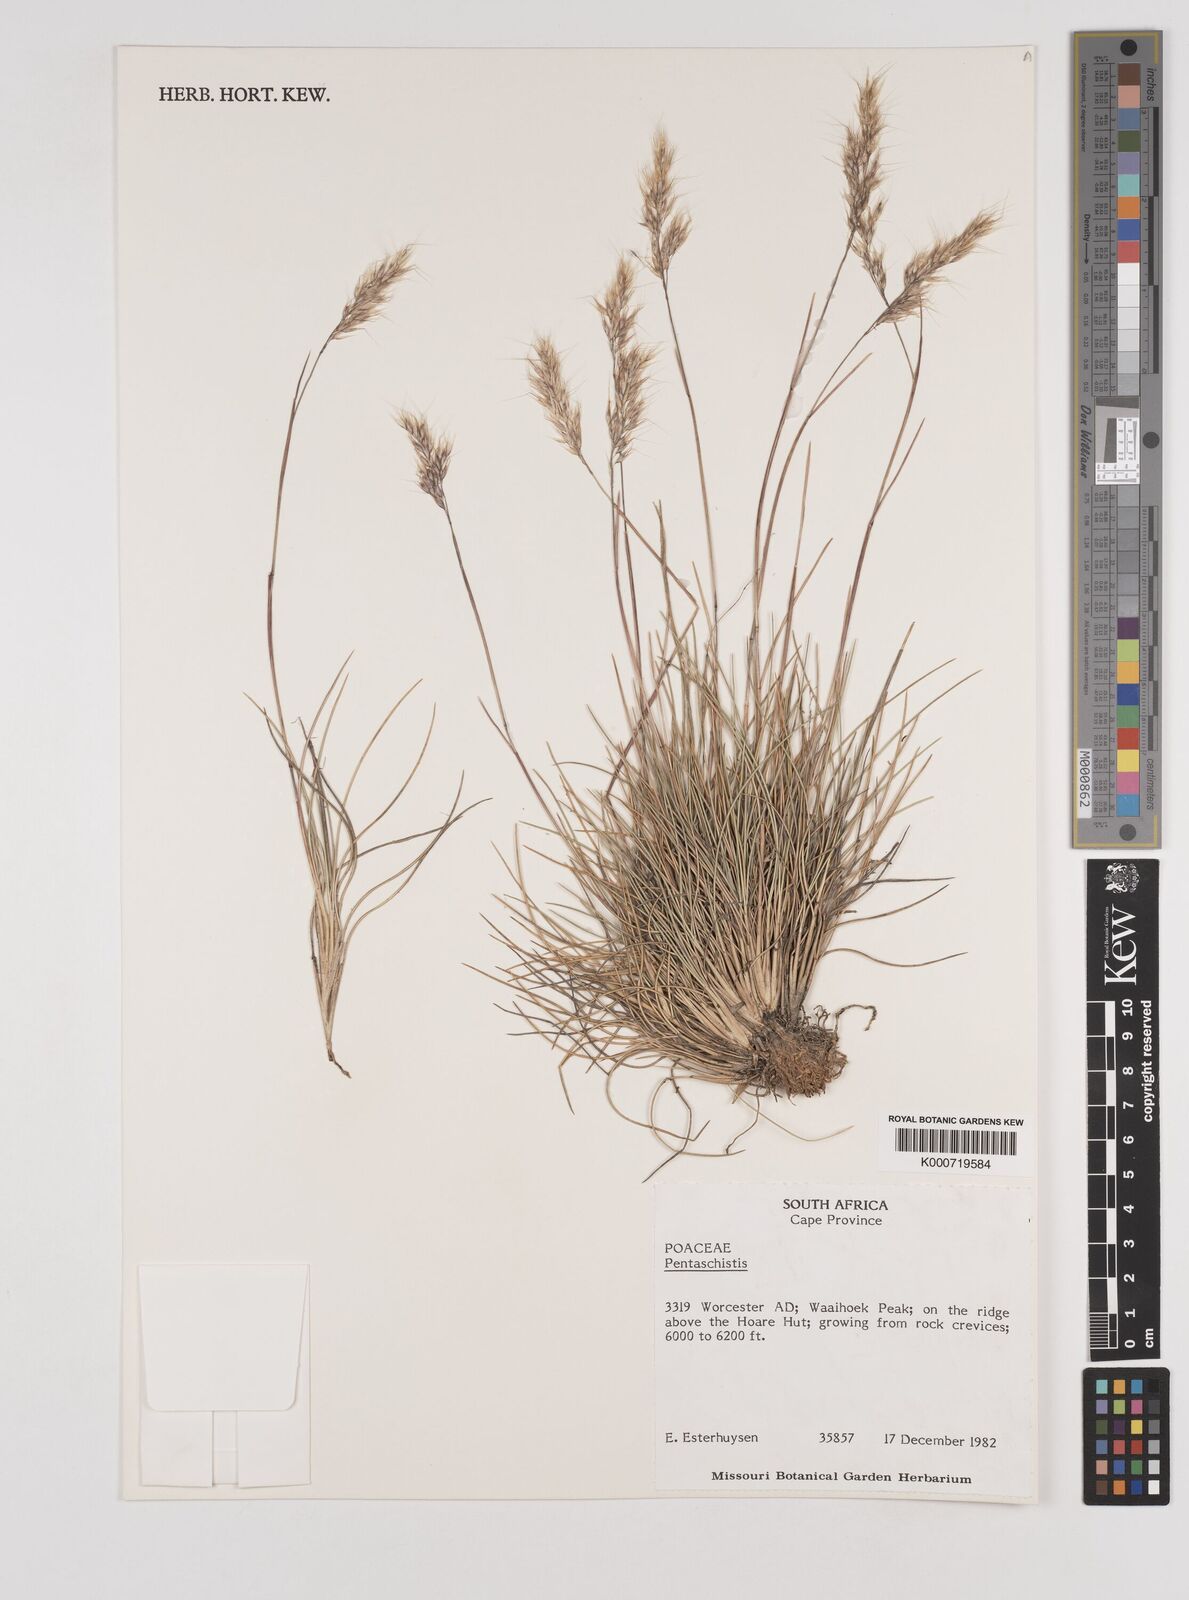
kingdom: Plantae
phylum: Tracheophyta
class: Liliopsida
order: Poales
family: Poaceae
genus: Pentameris
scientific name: Pentameris rigidissima
